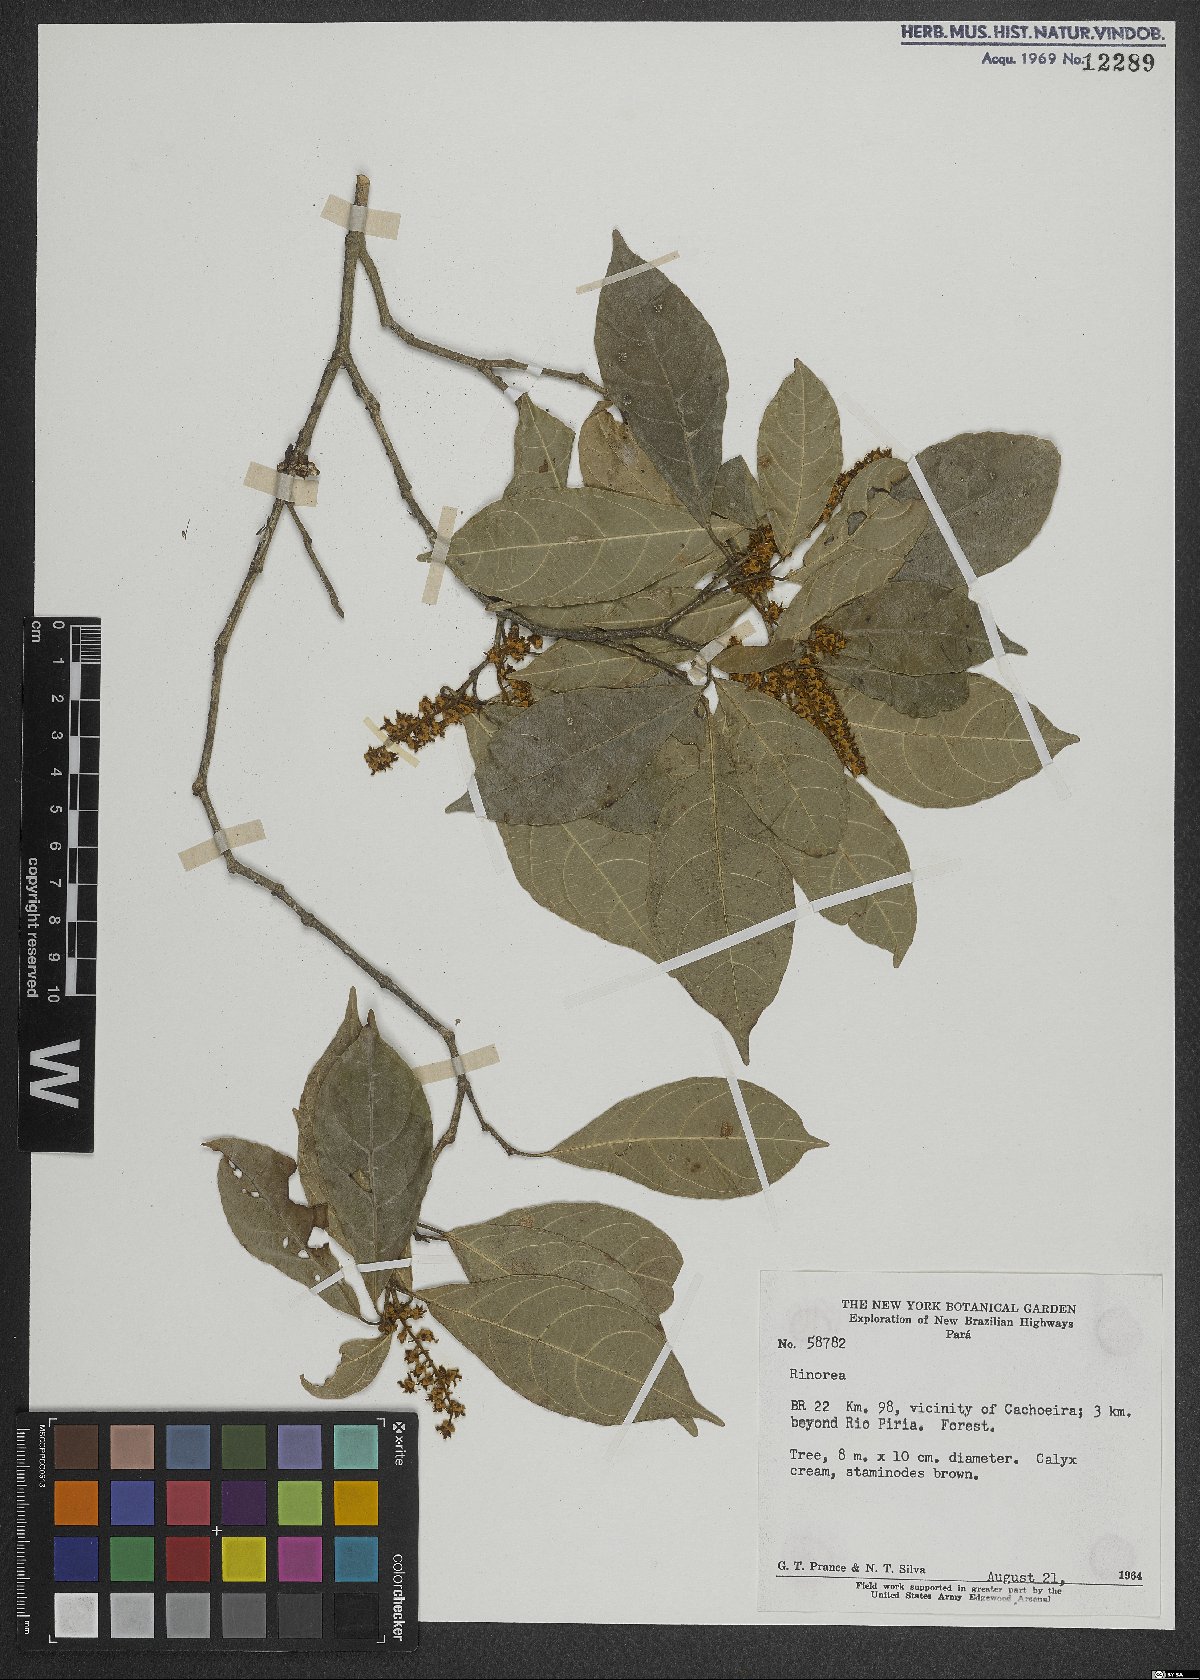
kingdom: Plantae
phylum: Tracheophyta
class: Magnoliopsida
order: Malpighiales
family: Violaceae
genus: Rinorea
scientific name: Rinorea
